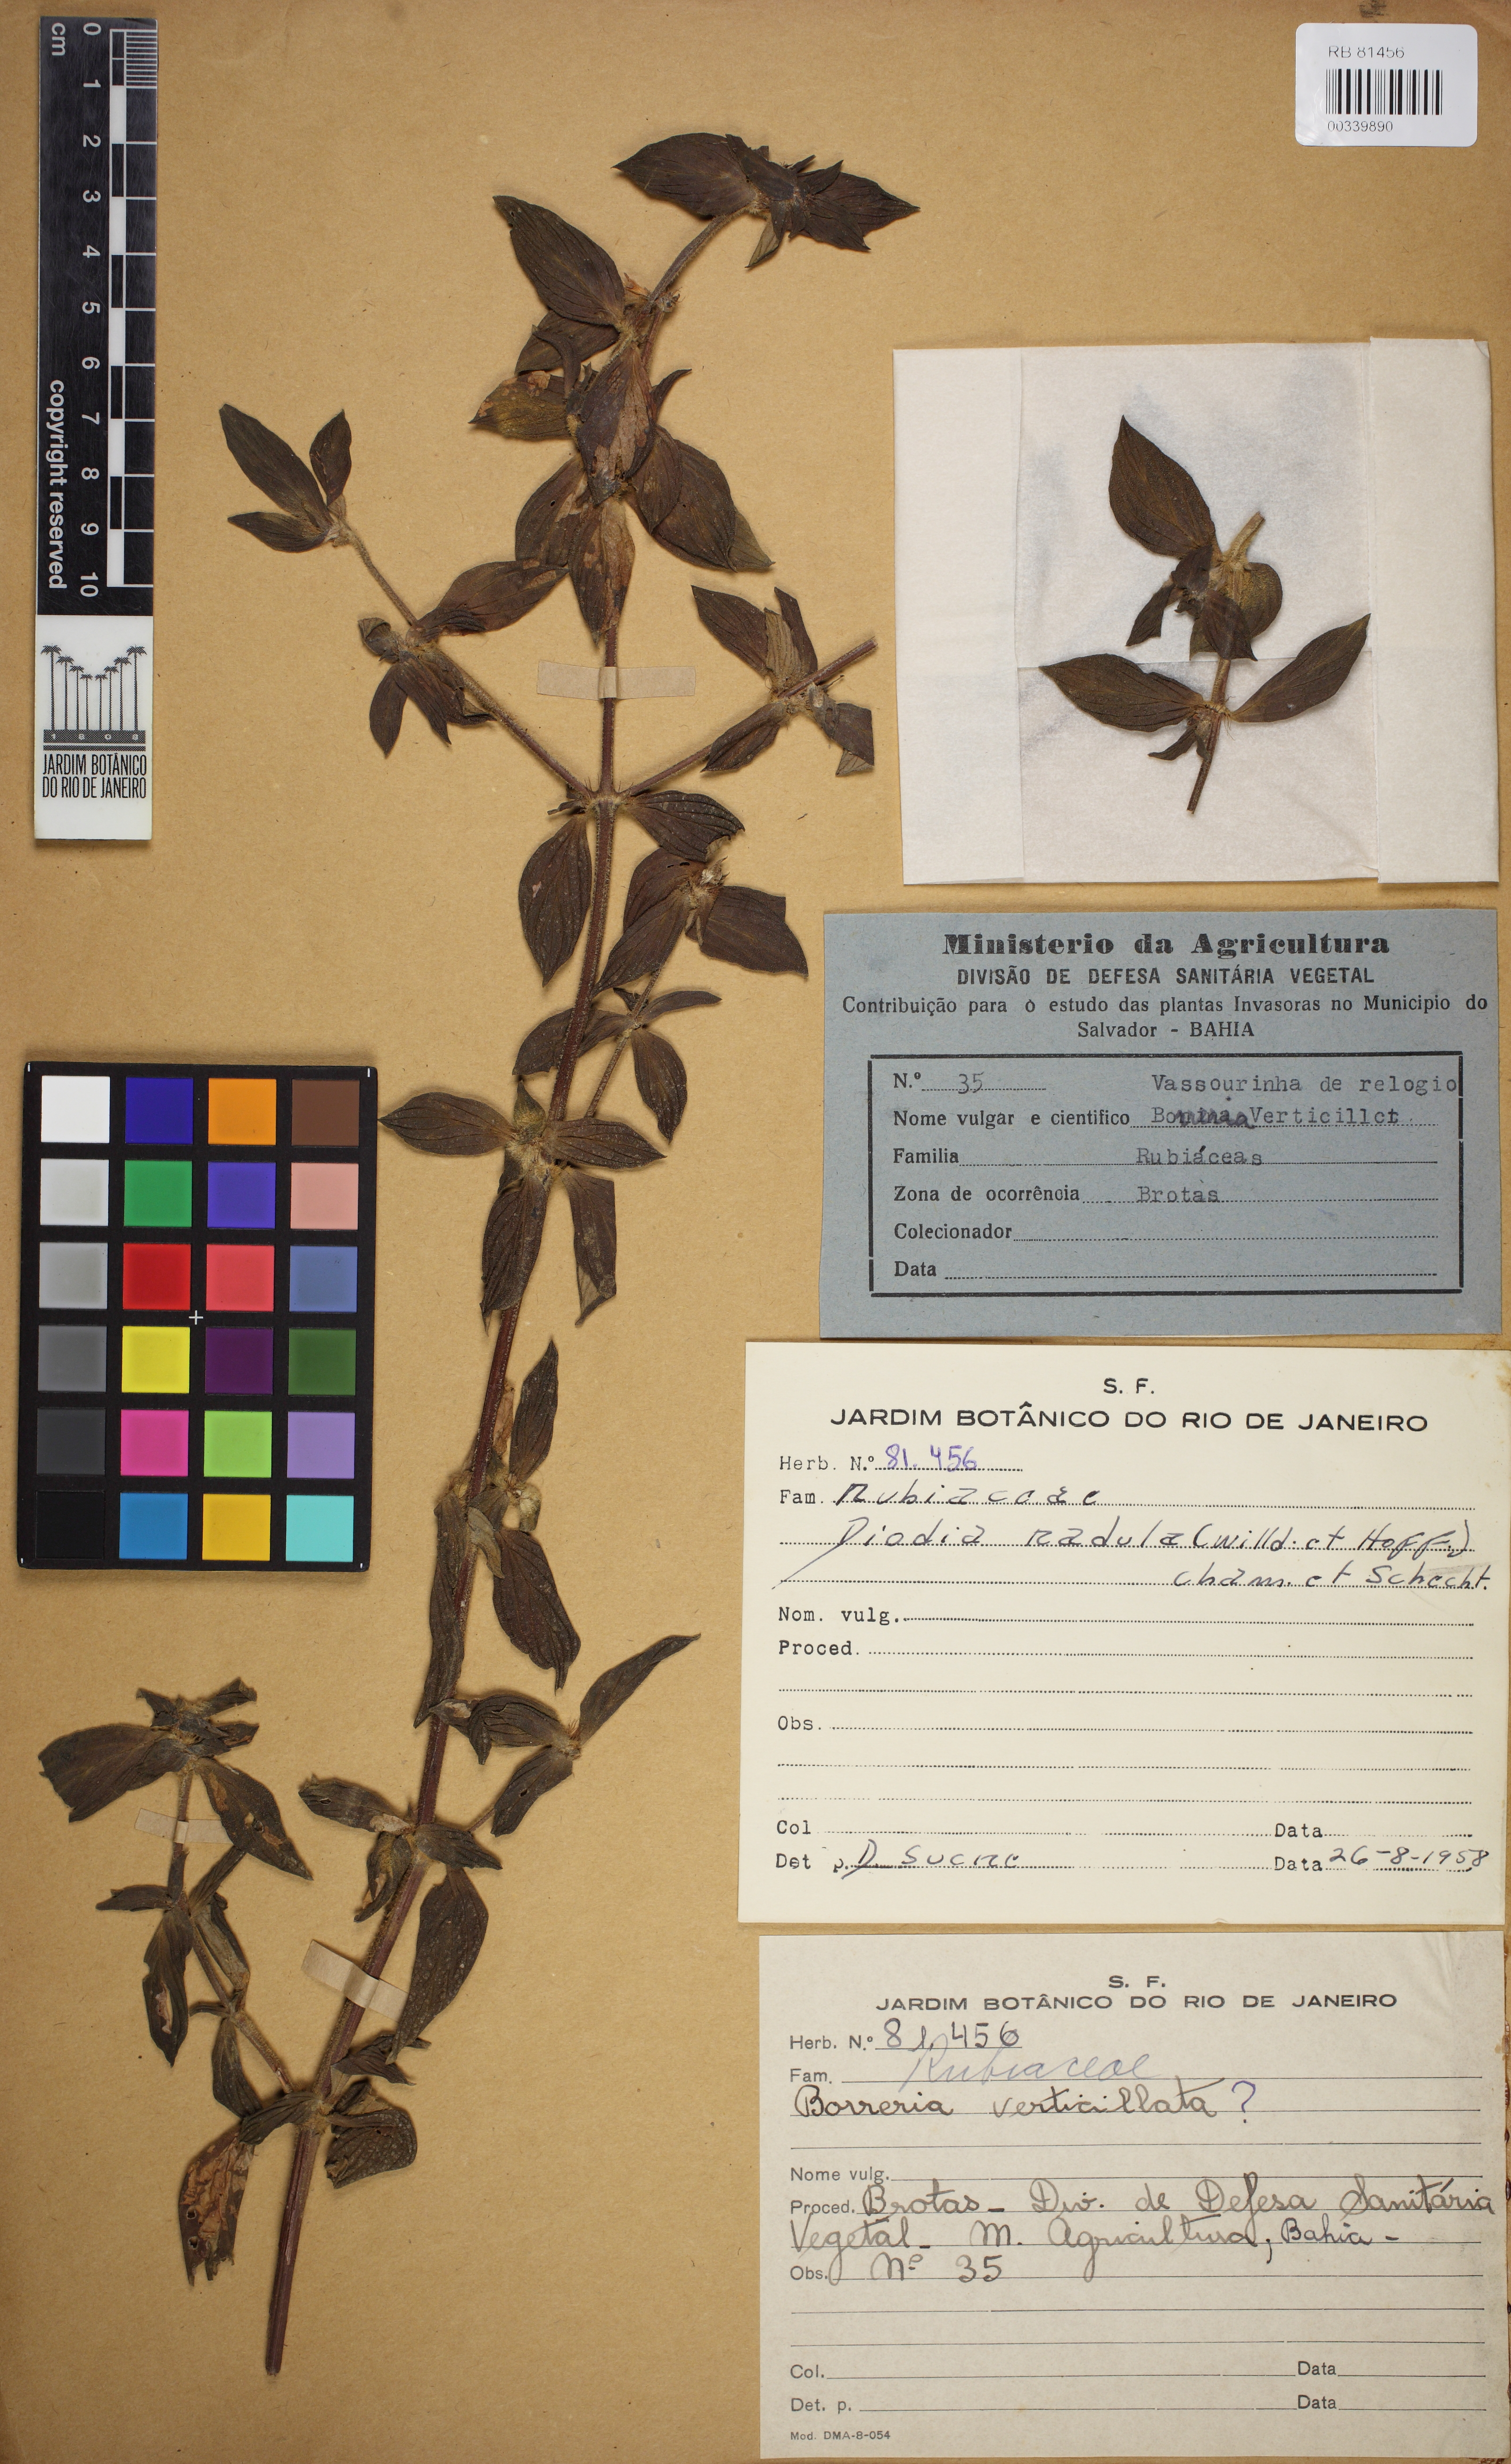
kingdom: Plantae
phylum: Tracheophyta
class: Magnoliopsida
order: Gentianales
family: Rubiaceae
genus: Hexasepalum
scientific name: Hexasepalum radulum
